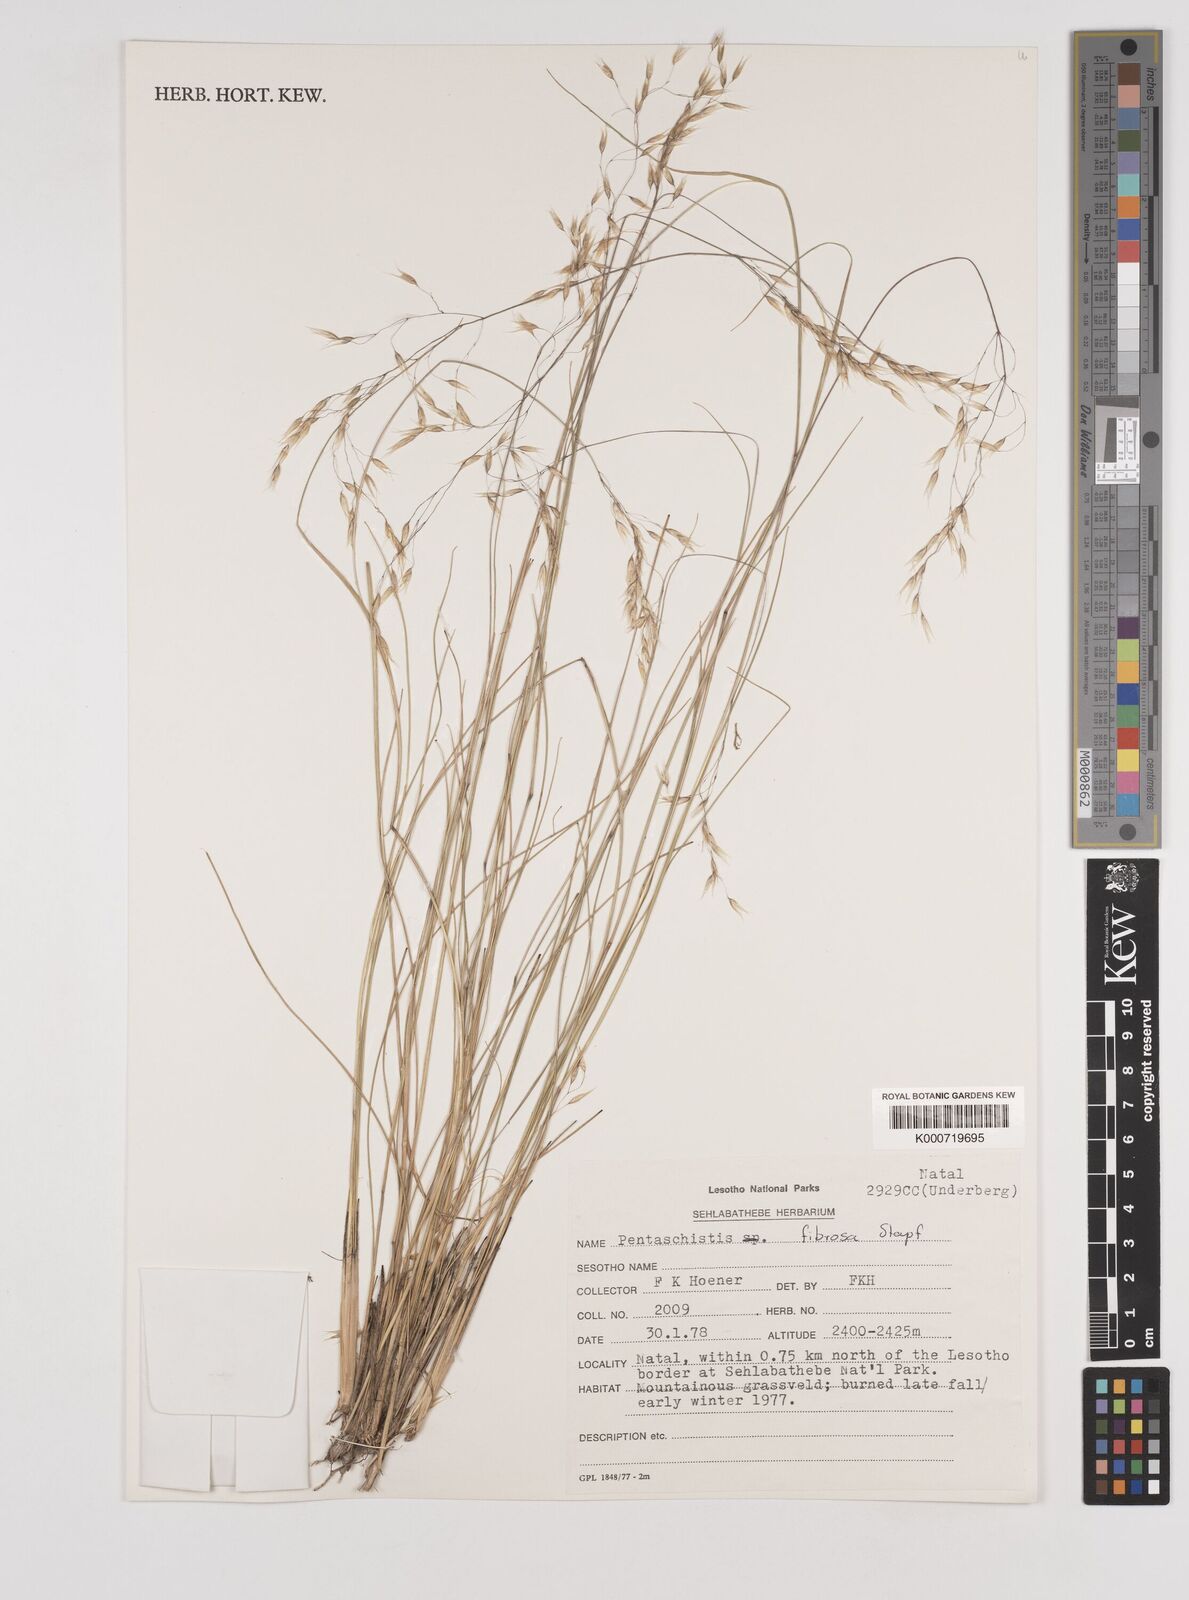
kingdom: Plantae
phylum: Tracheophyta
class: Liliopsida
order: Poales
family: Poaceae
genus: Pentameris
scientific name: Pentameris tysonii
